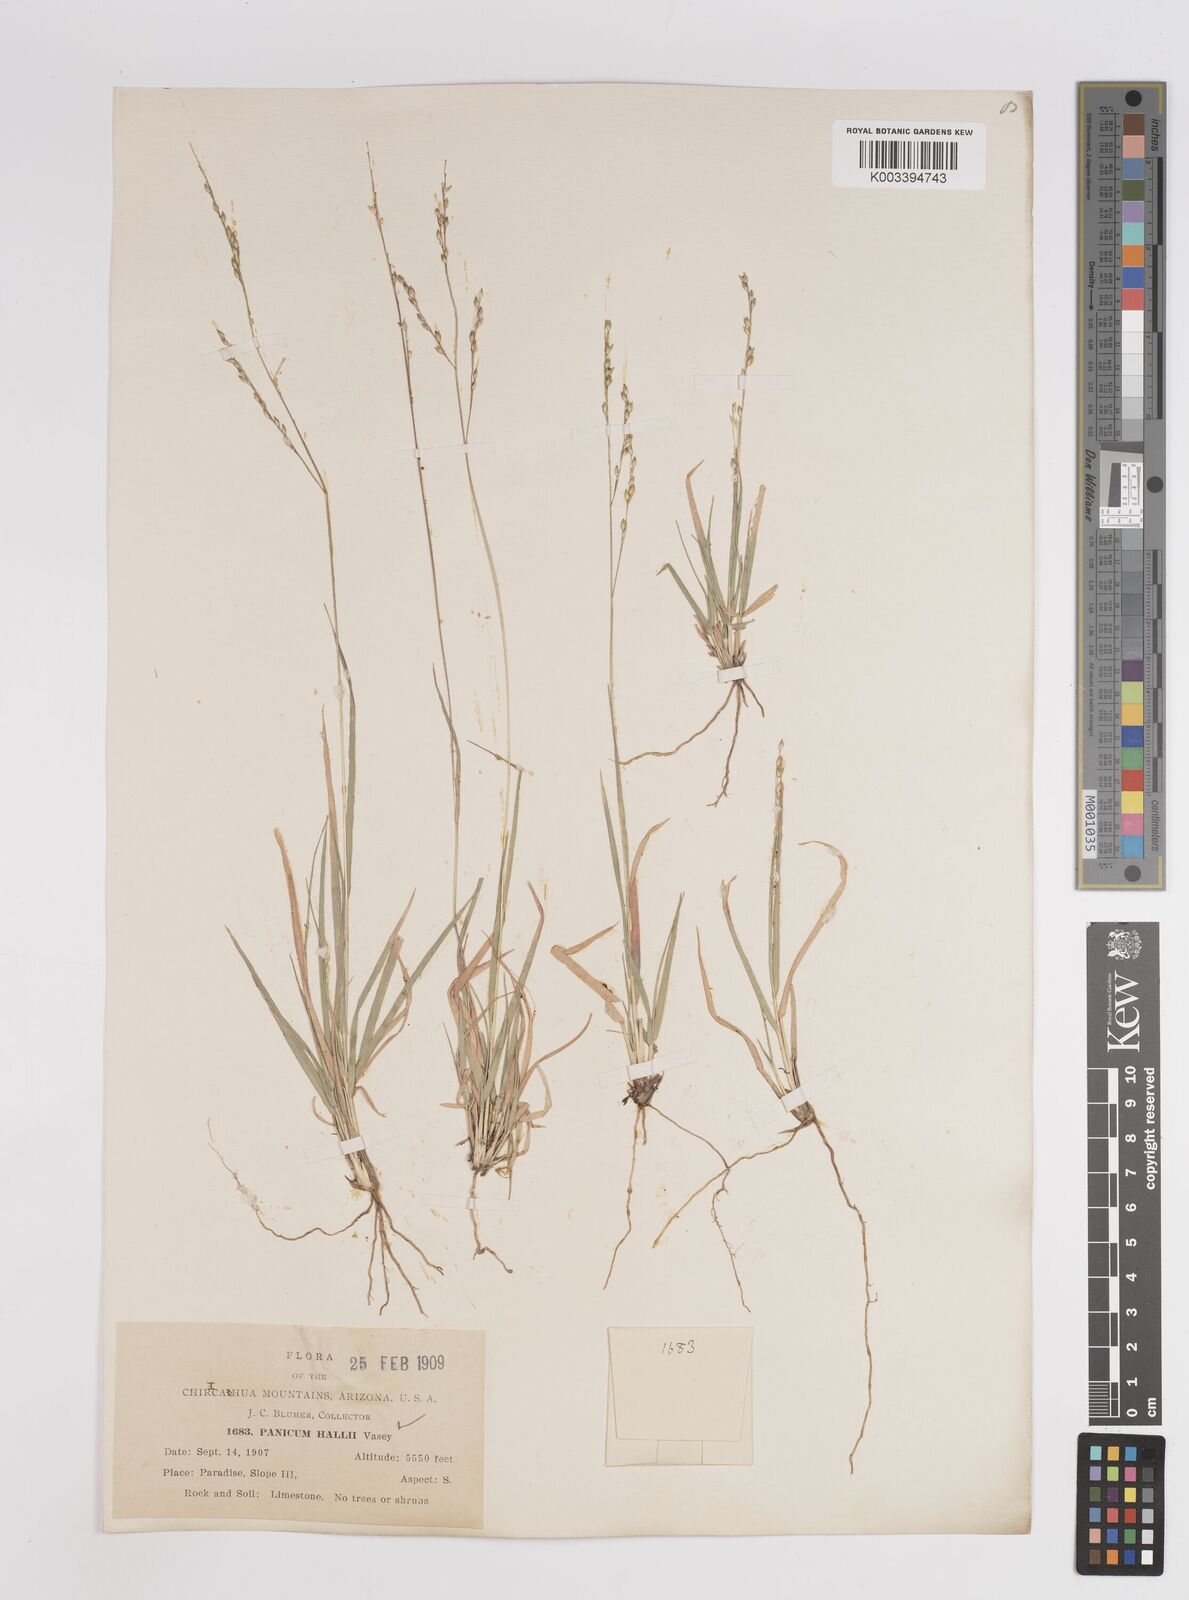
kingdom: Plantae
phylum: Tracheophyta
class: Liliopsida
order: Poales
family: Poaceae
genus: Panicum
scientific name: Panicum hallii
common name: Hall's witchgrass
